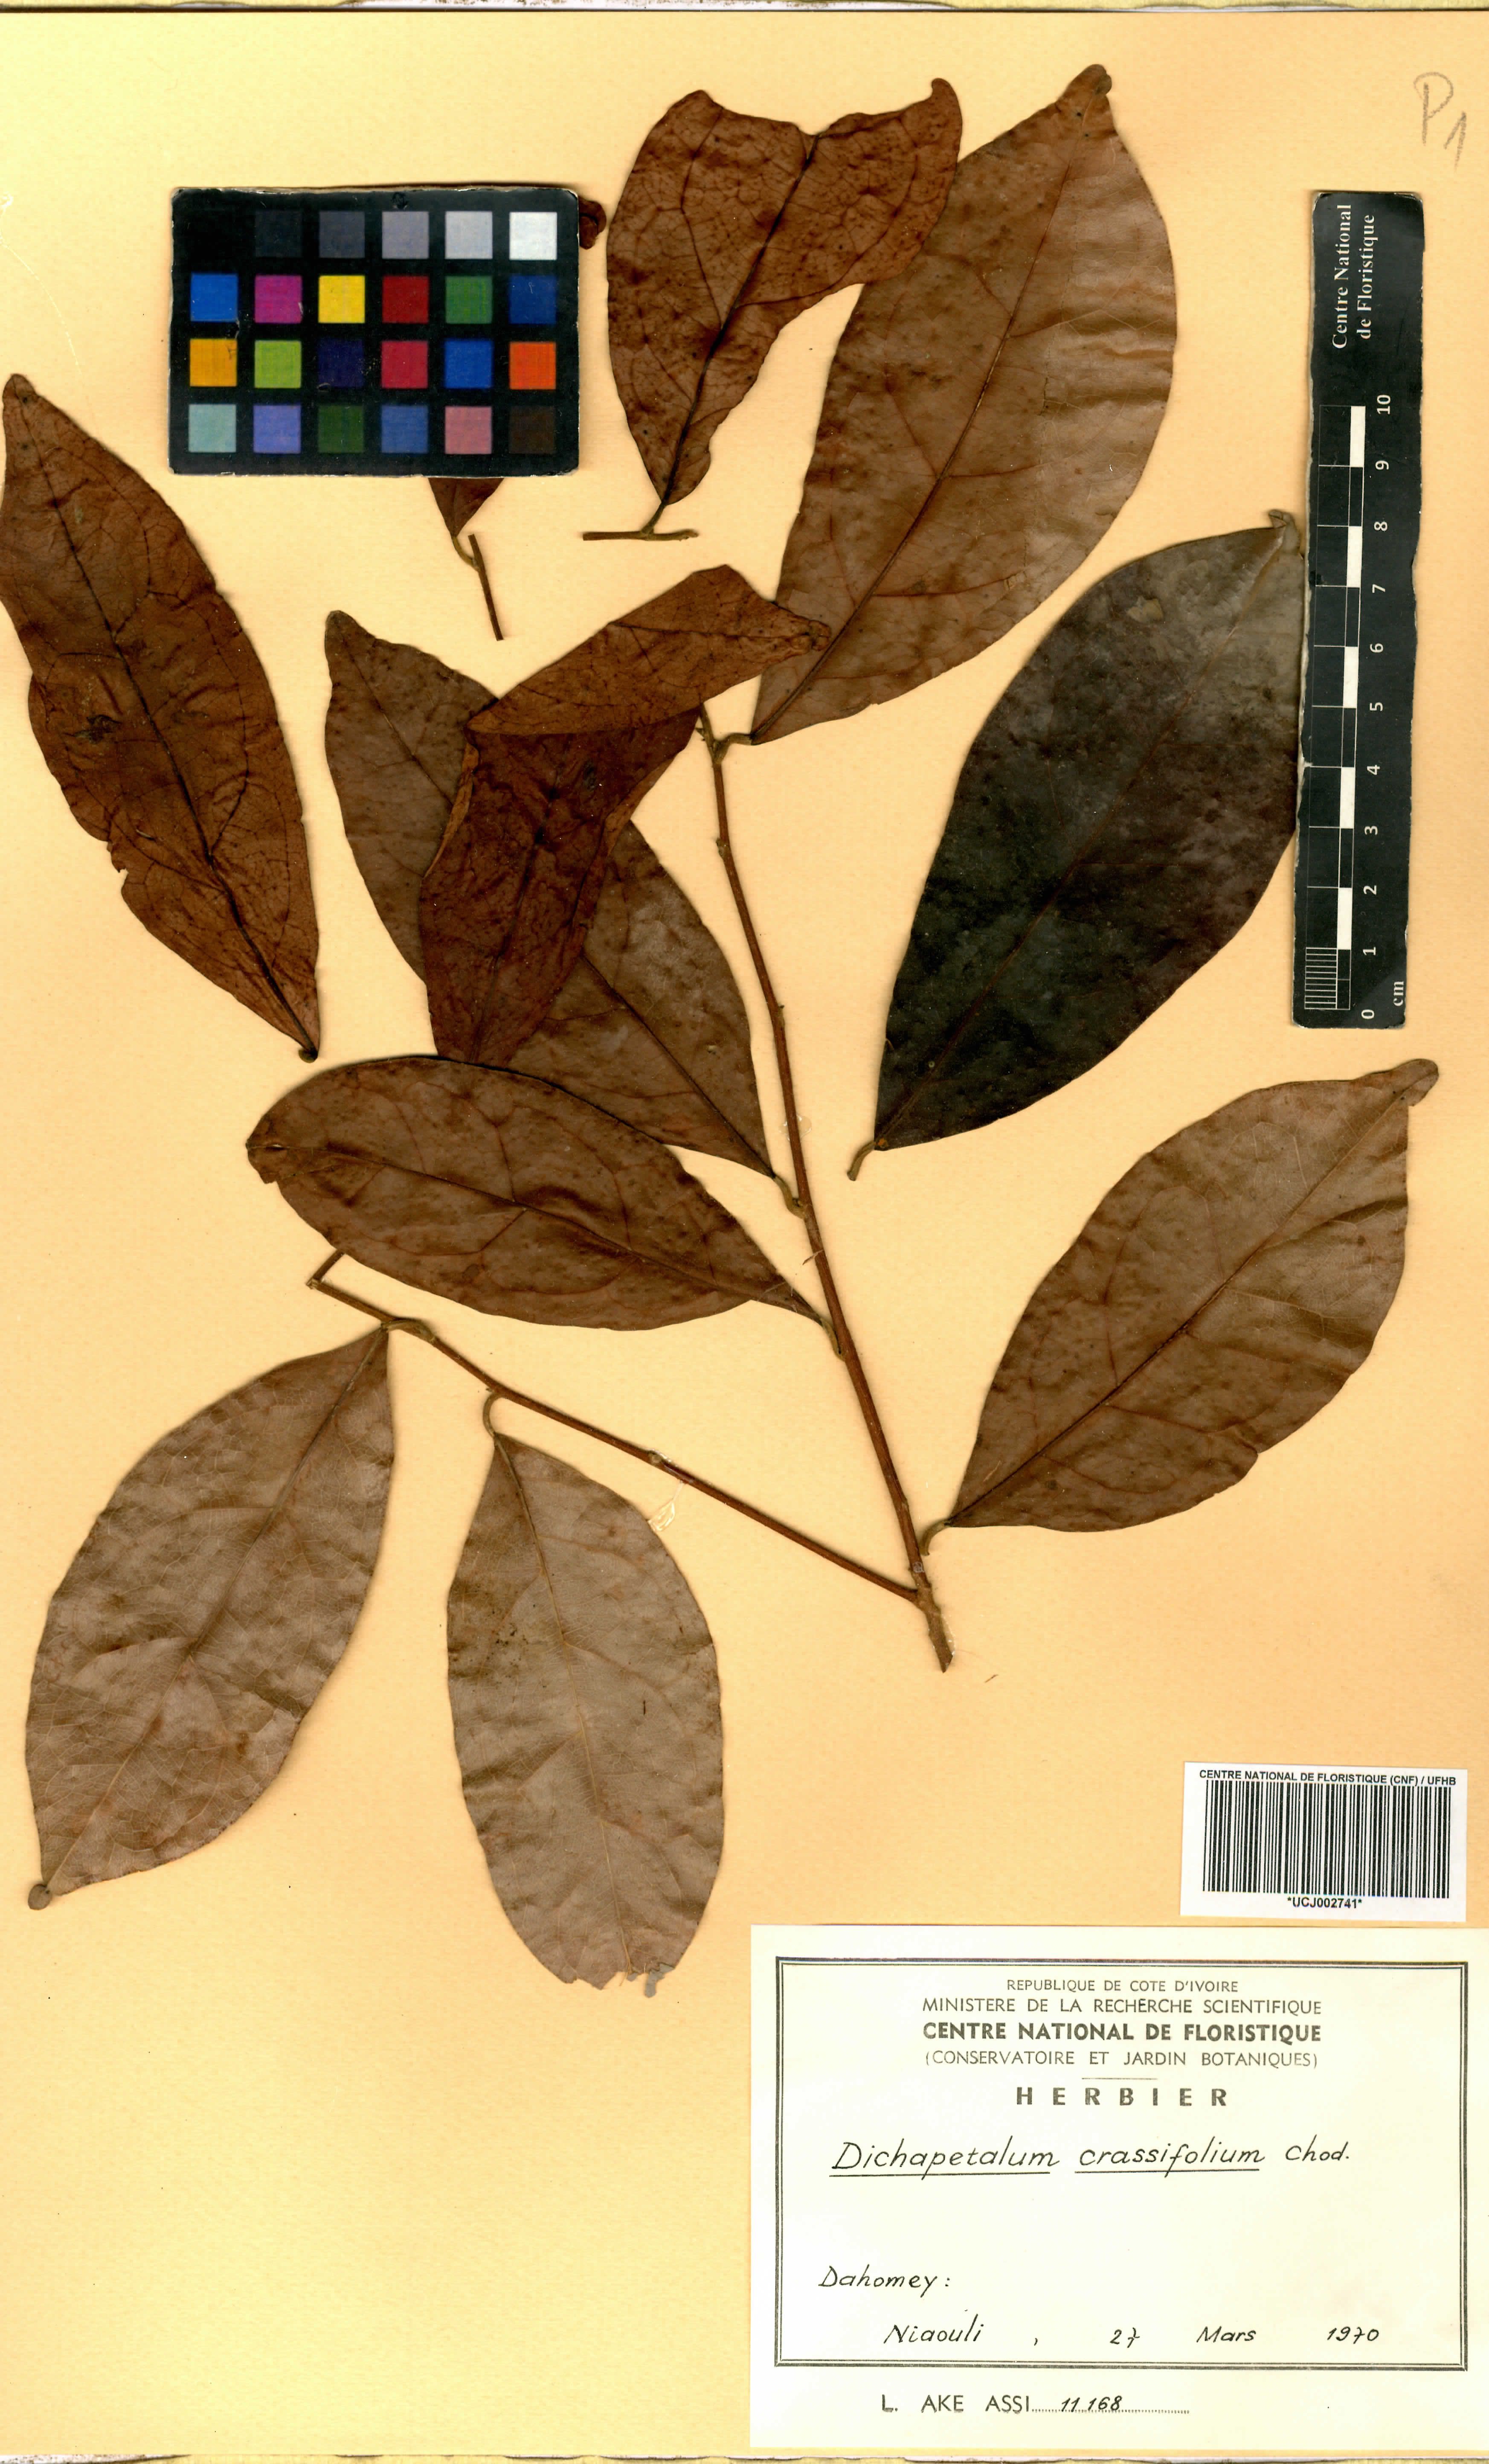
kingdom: Plantae
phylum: Tracheophyta
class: Magnoliopsida
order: Malpighiales
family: Dichapetalaceae
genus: Dichapetalum
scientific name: Dichapetalum crassifolium
